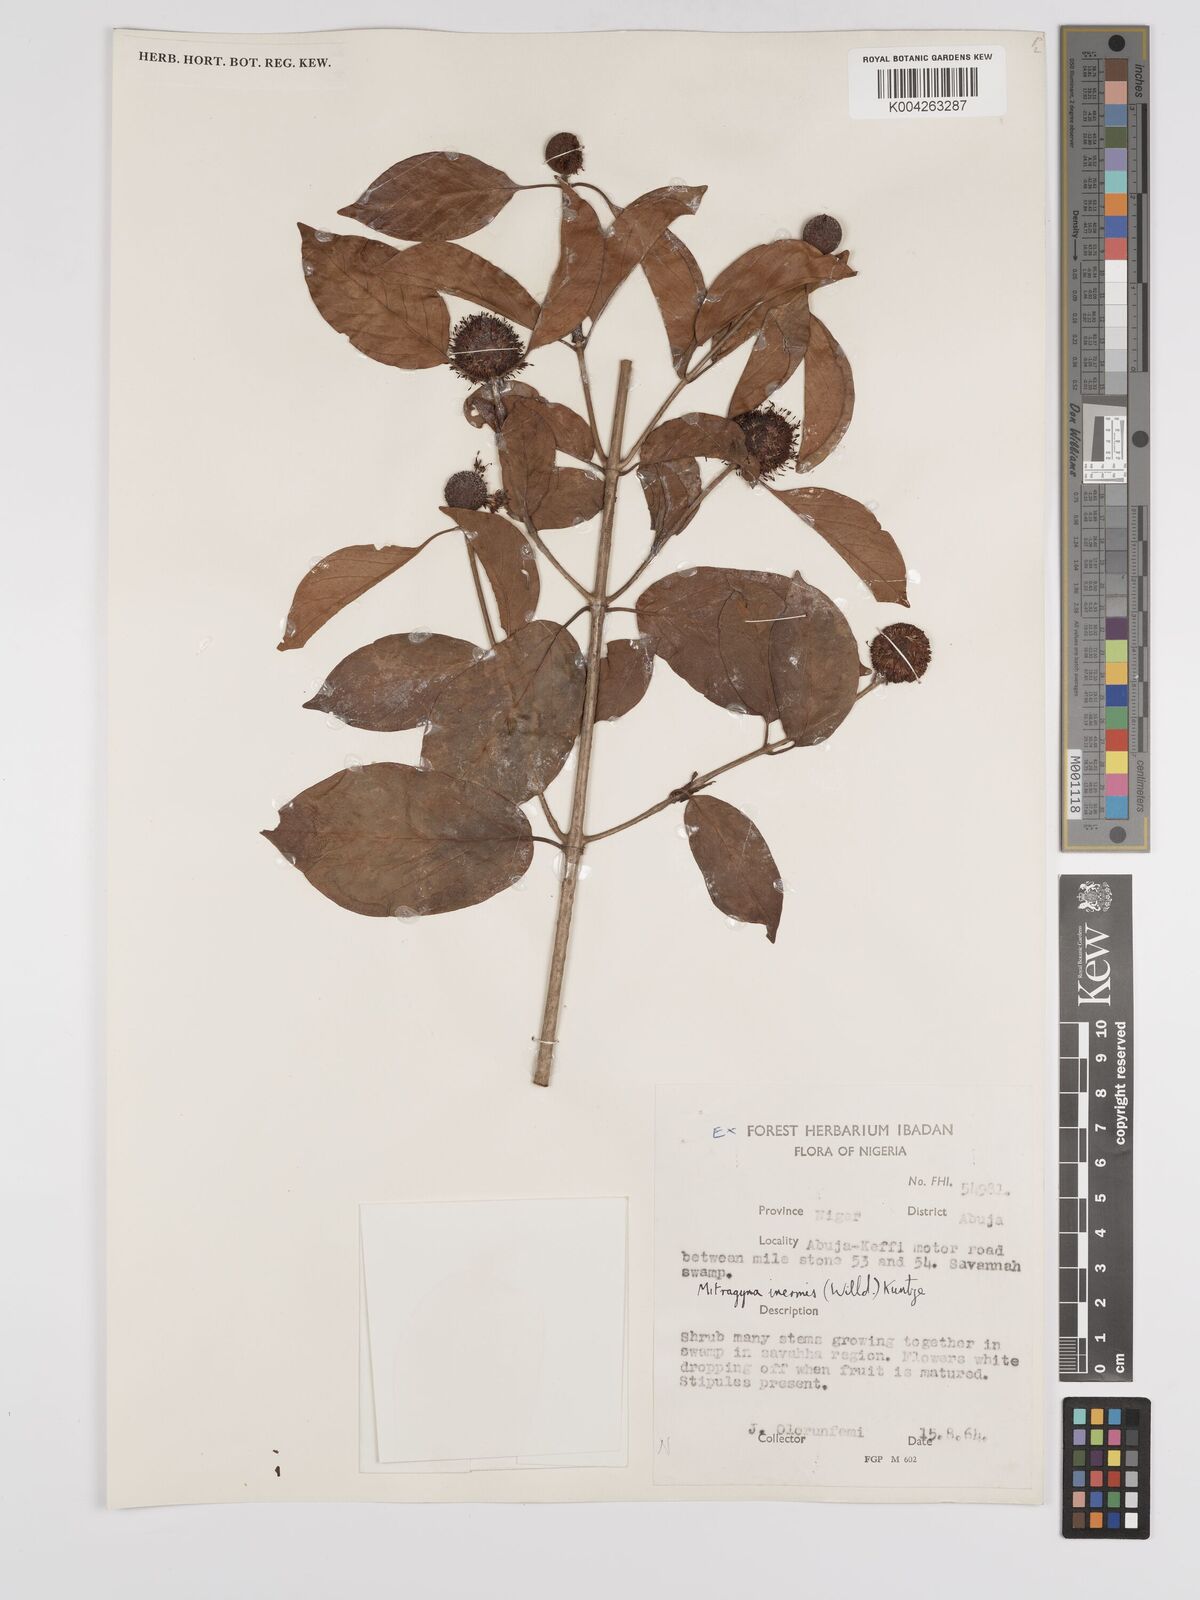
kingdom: Plantae
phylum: Tracheophyta
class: Magnoliopsida
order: Gentianales
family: Rubiaceae
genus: Mitragyna
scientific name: Mitragyna inermis
